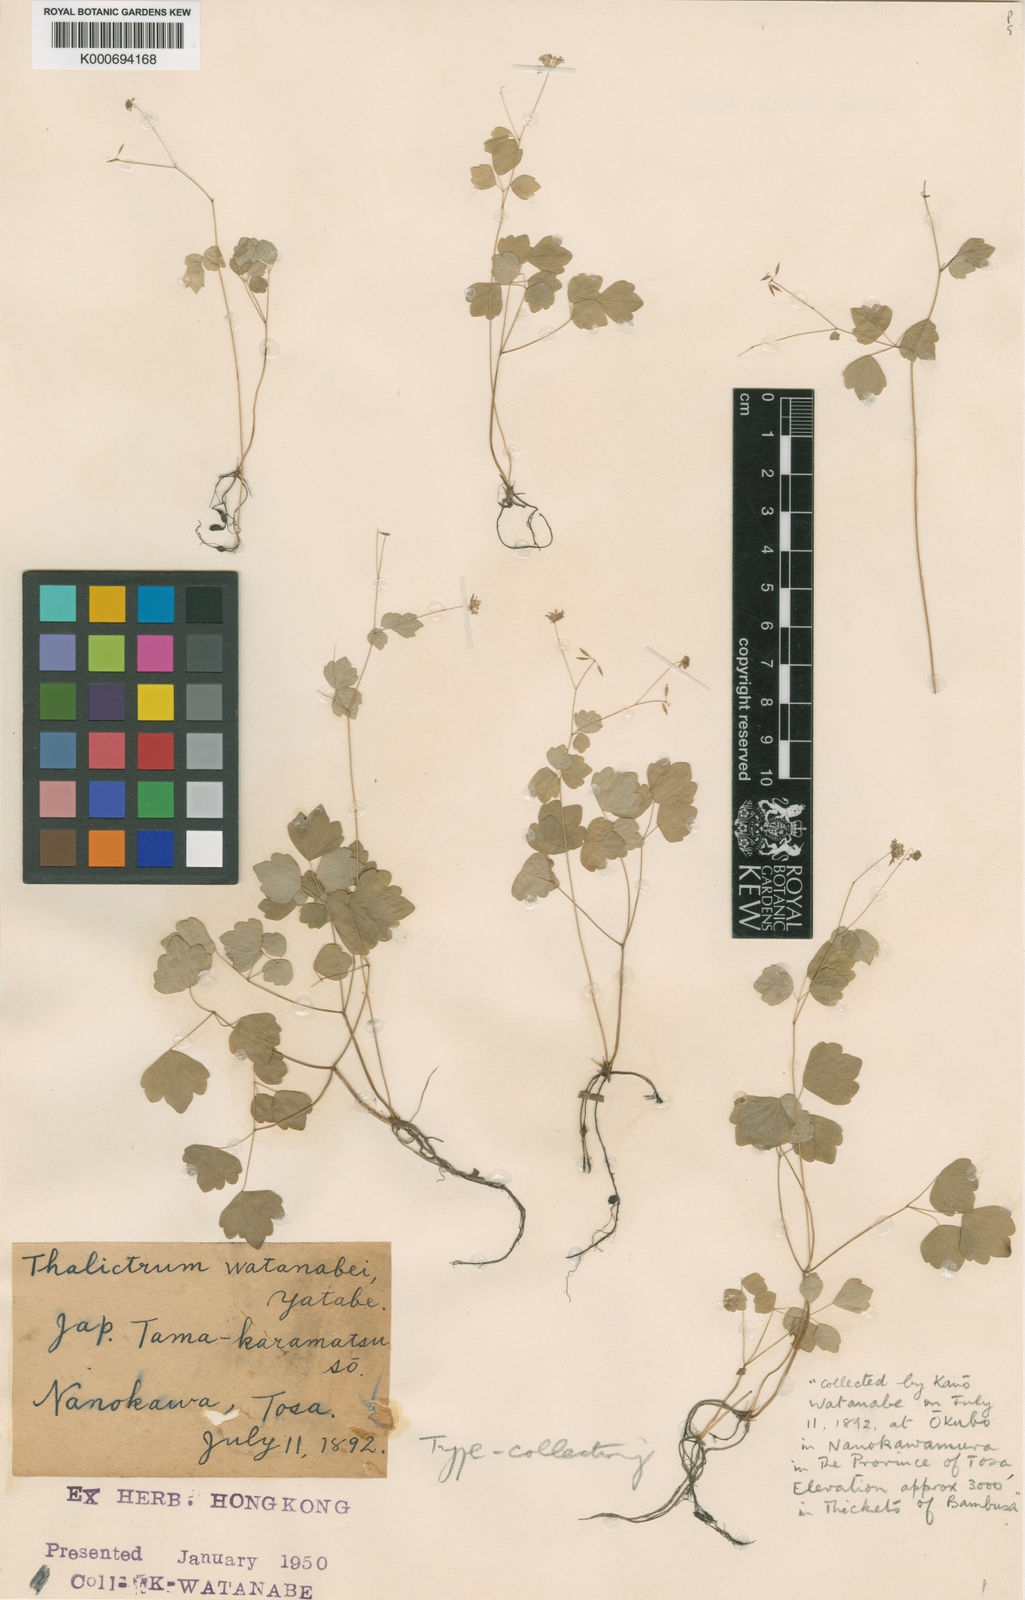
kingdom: Plantae
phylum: Tracheophyta
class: Magnoliopsida
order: Ranunculales
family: Ranunculaceae
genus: Thalictrum
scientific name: Thalictrum watanabei
